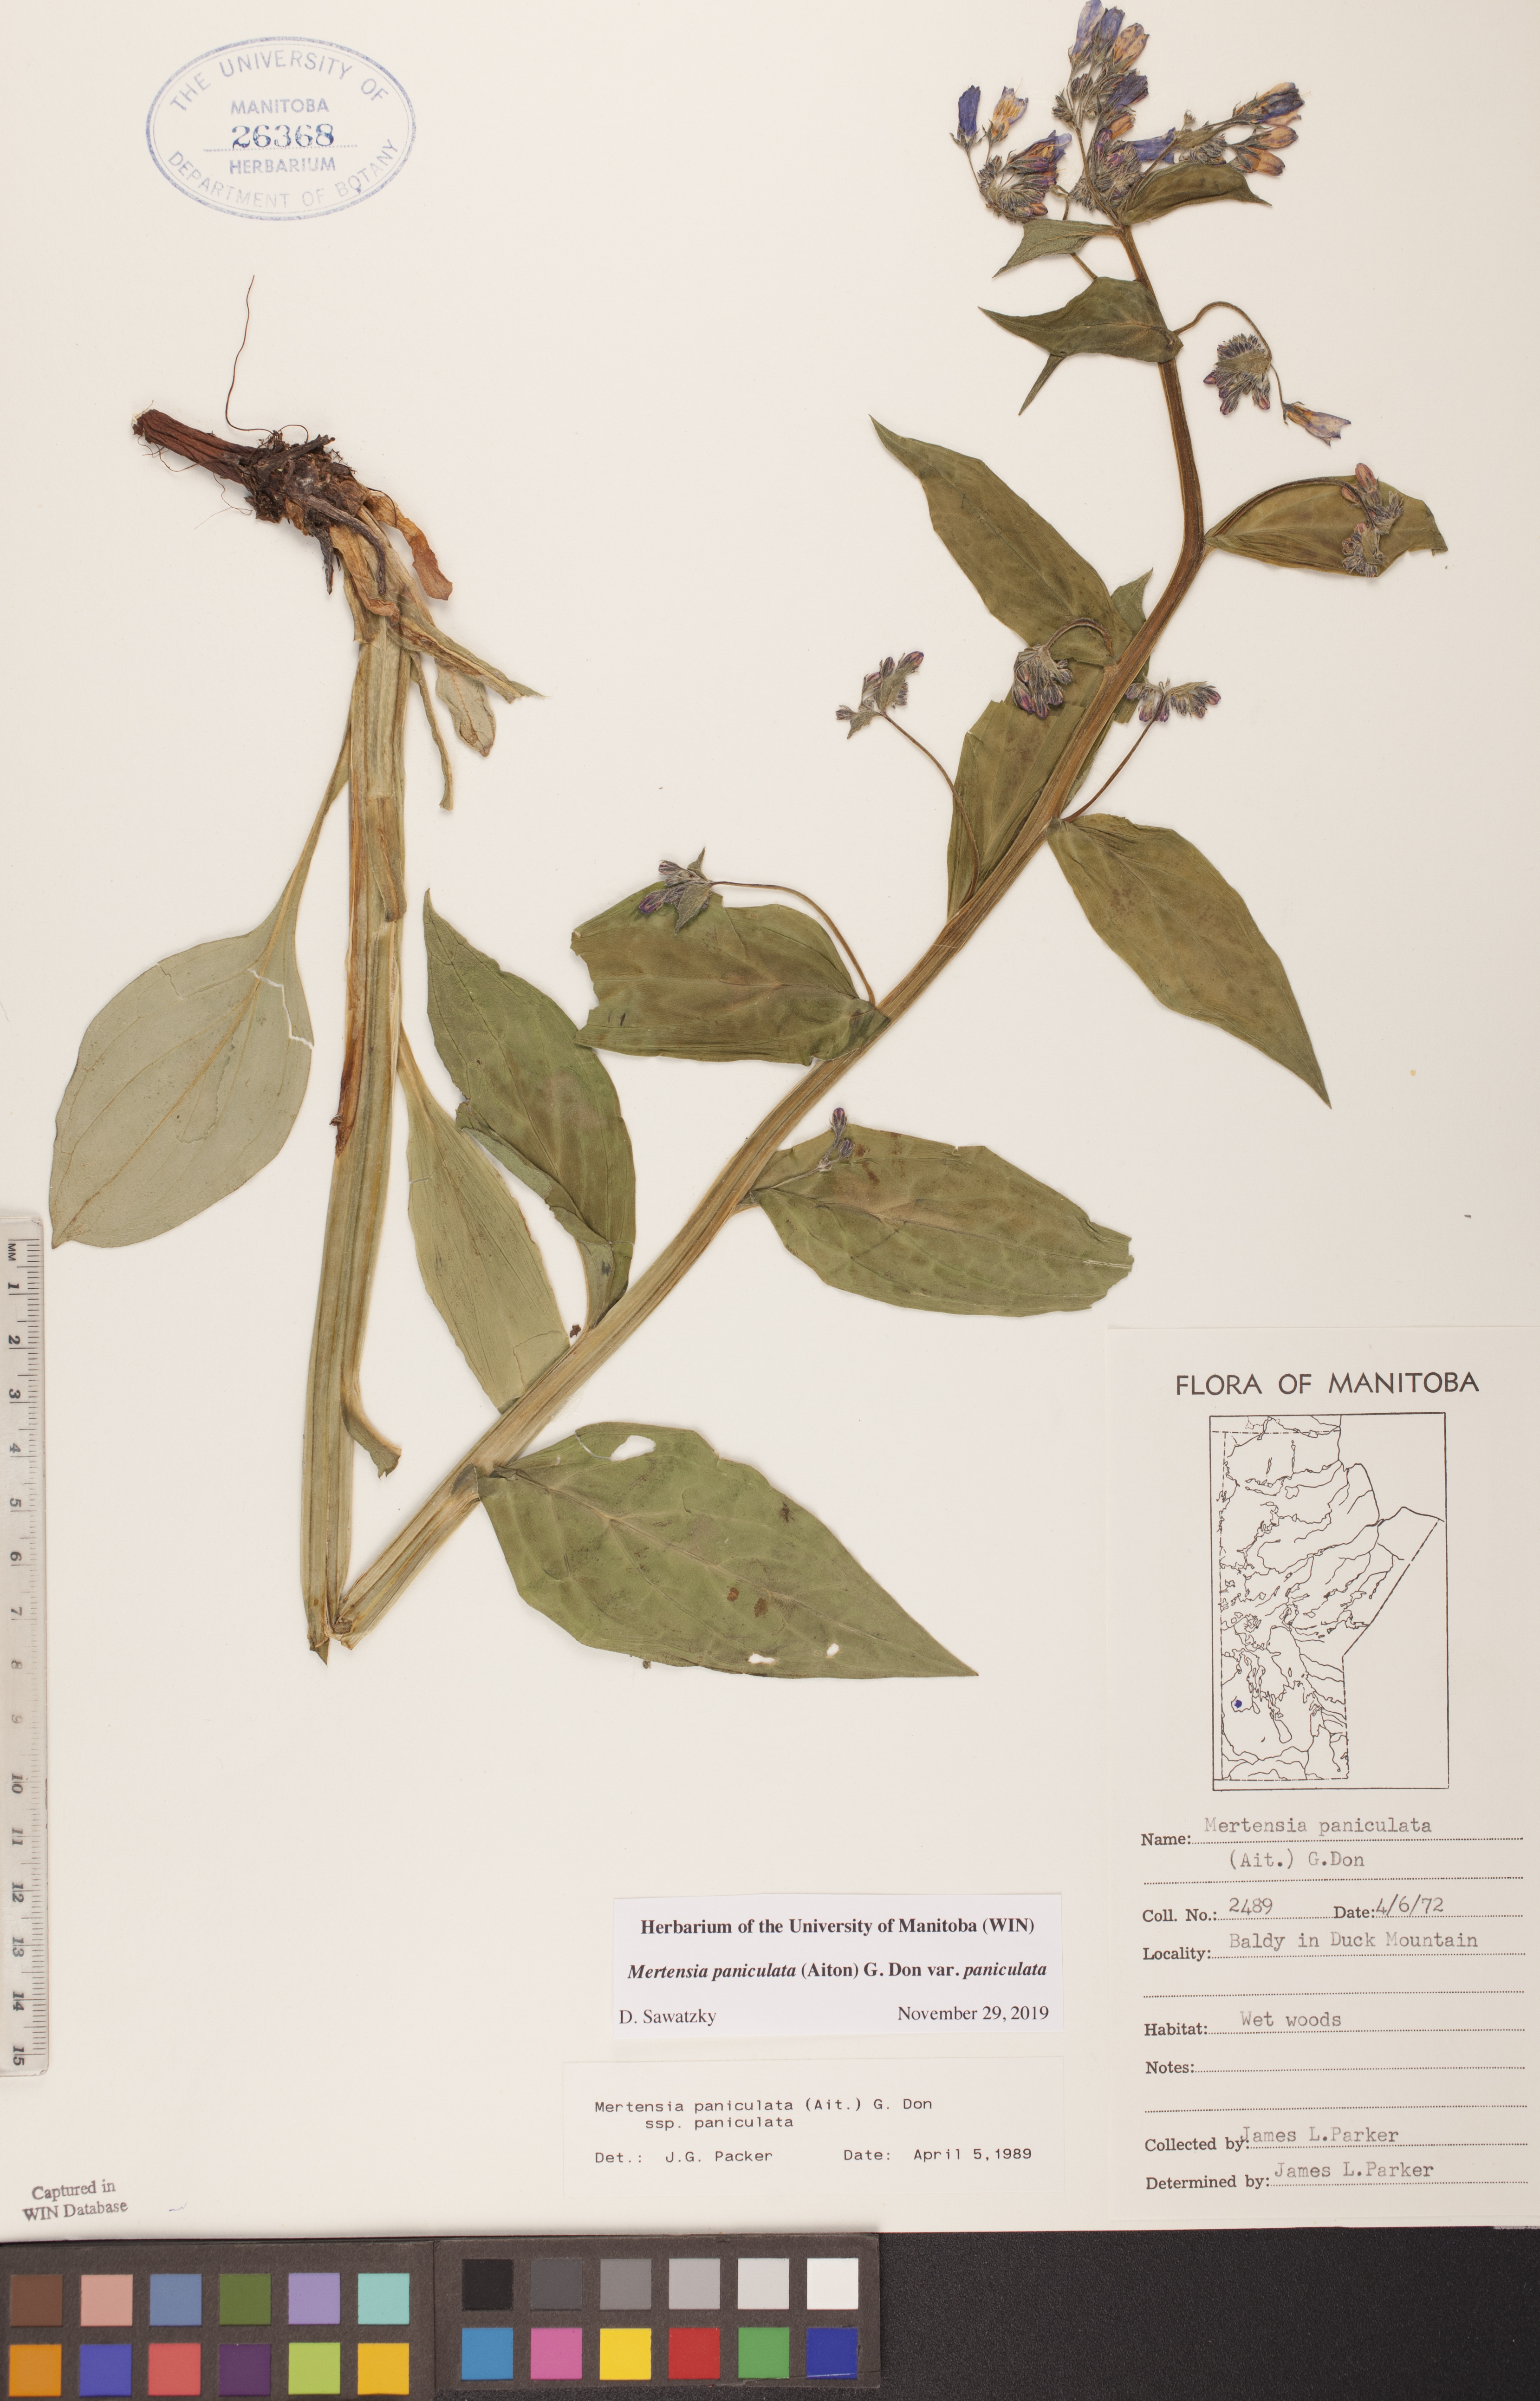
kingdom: Plantae
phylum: Tracheophyta
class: Magnoliopsida
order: Boraginales
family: Boraginaceae
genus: Mertensia
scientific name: Mertensia paniculata
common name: Panicled bluebells
